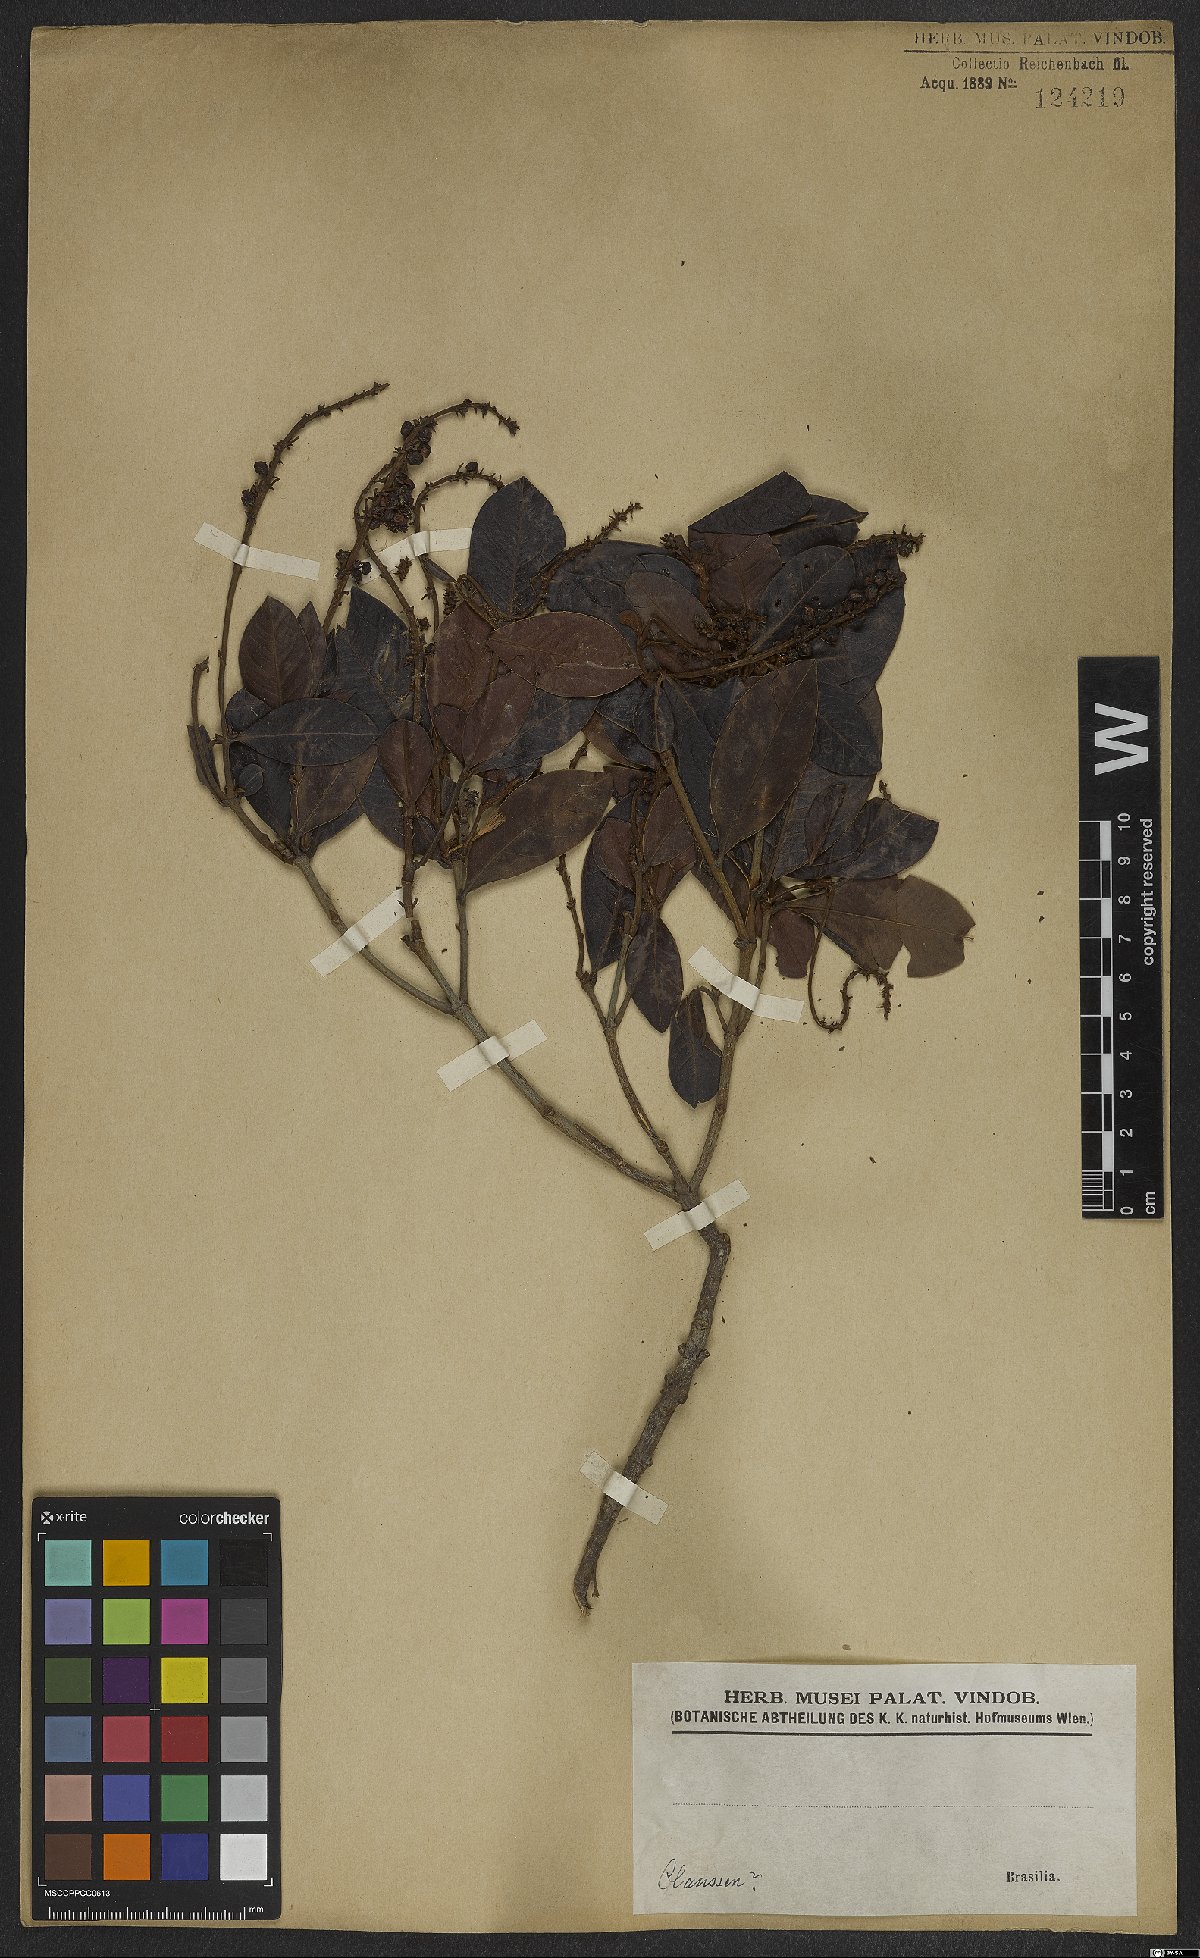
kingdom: Plantae
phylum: Tracheophyta
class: Magnoliopsida
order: Malpighiales
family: Malpighiaceae
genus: Byrsonima
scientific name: Byrsonima variabilis
